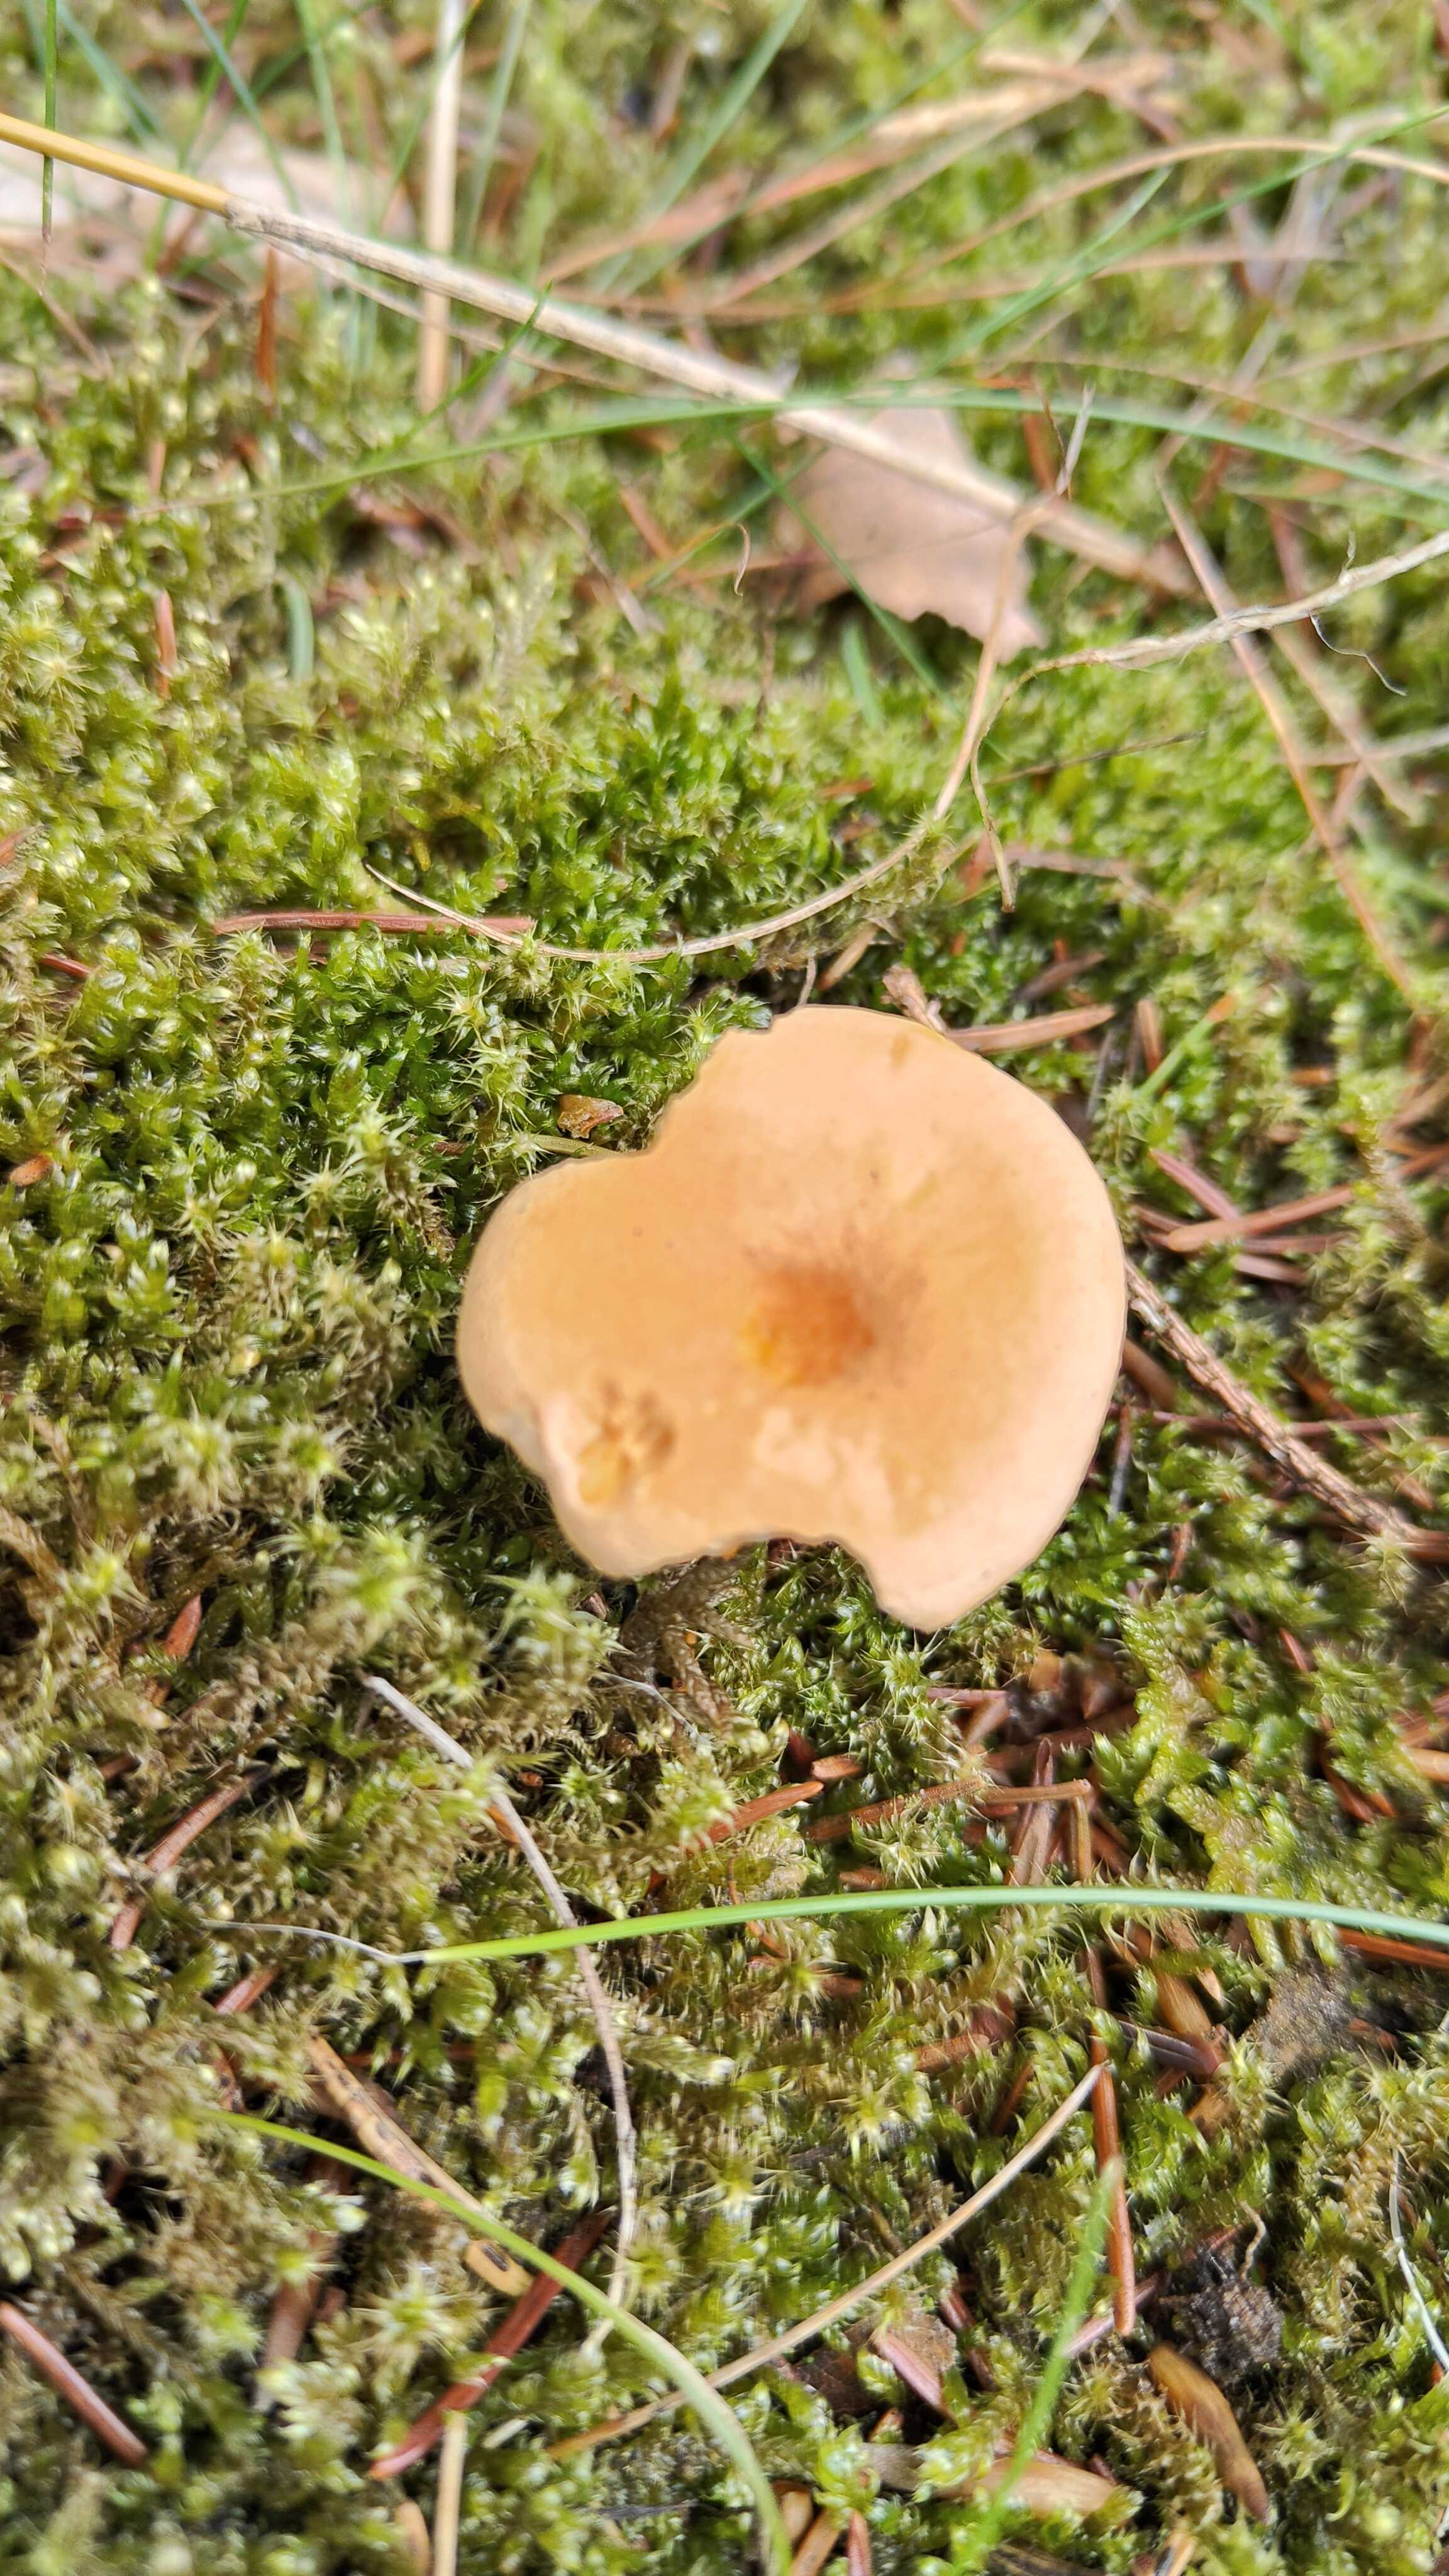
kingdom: Fungi
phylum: Basidiomycota
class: Agaricomycetes
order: Boletales
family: Hygrophoropsidaceae
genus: Hygrophoropsis
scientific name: Hygrophoropsis aurantiaca
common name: almindelig orangekantarel
